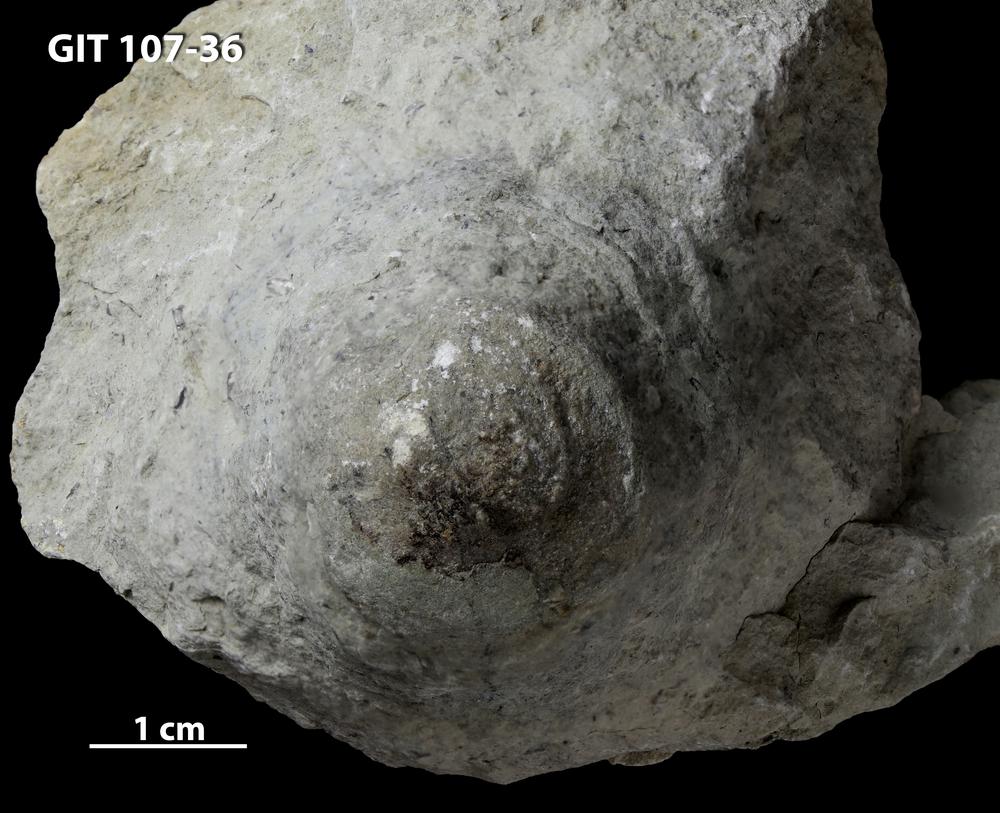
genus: Conichnus
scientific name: Conichnus
